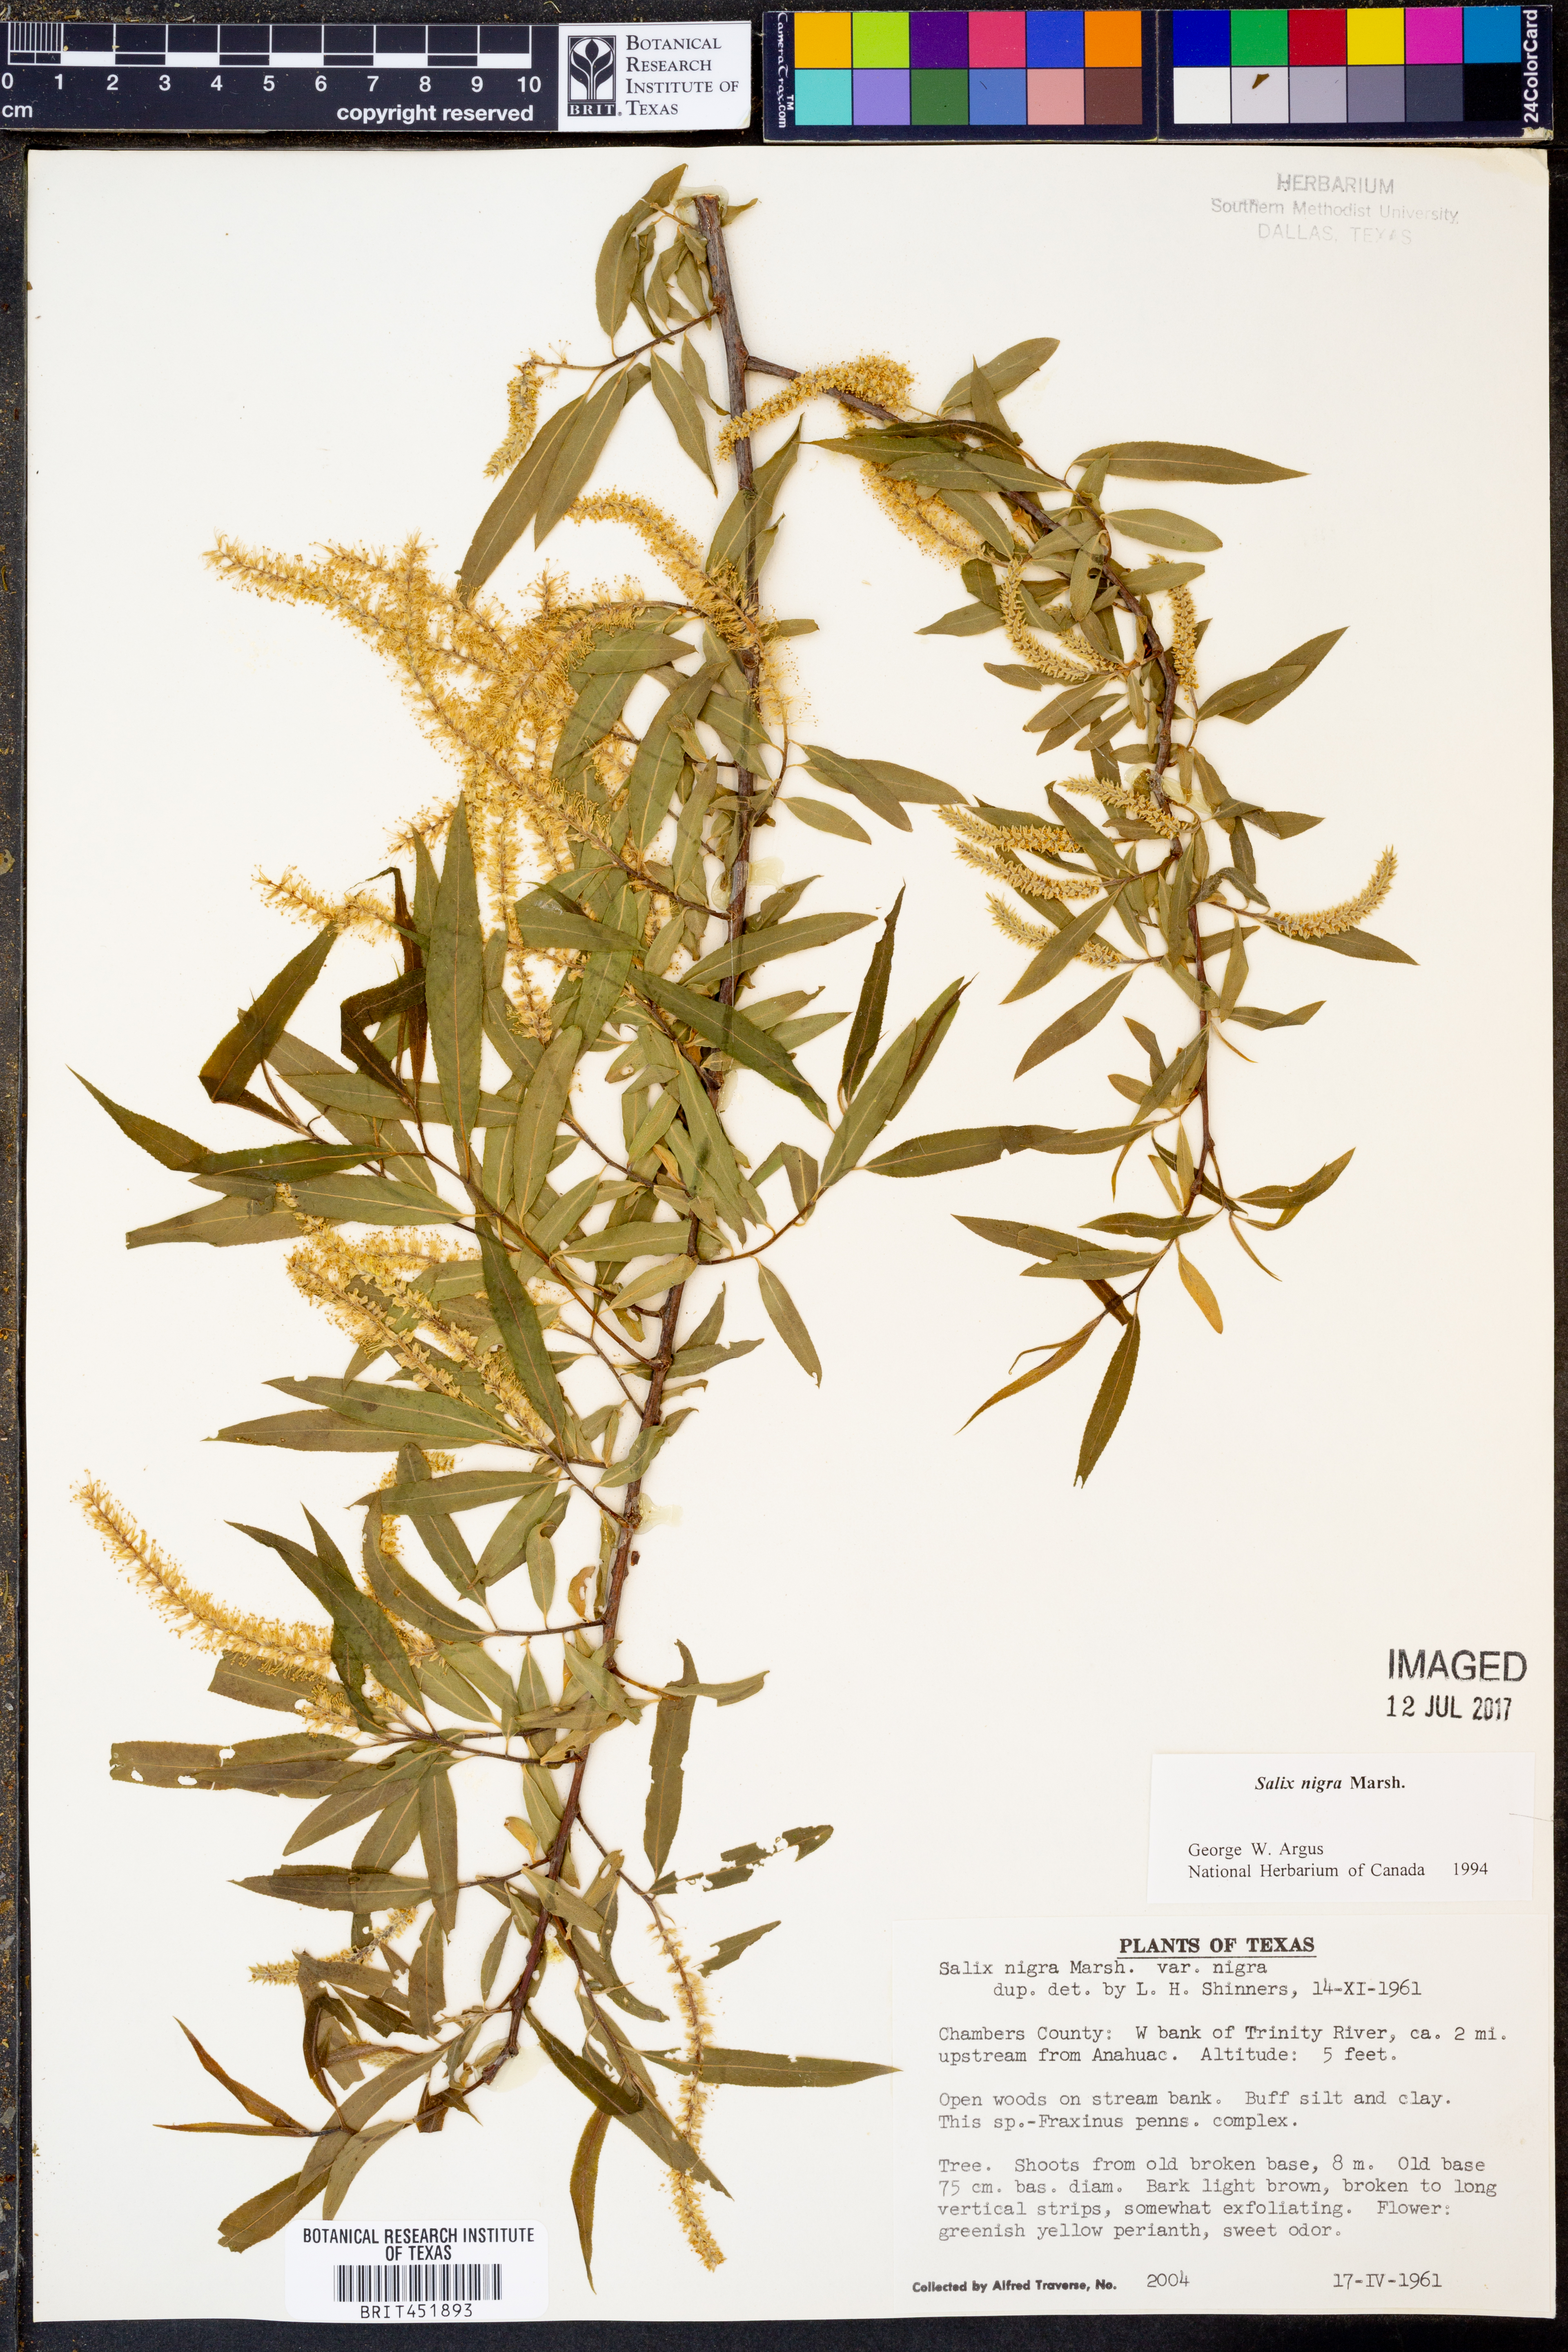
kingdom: Plantae
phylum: Tracheophyta
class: Magnoliopsida
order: Malpighiales
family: Salicaceae
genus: Salix
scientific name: Salix nigra
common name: Black willow
